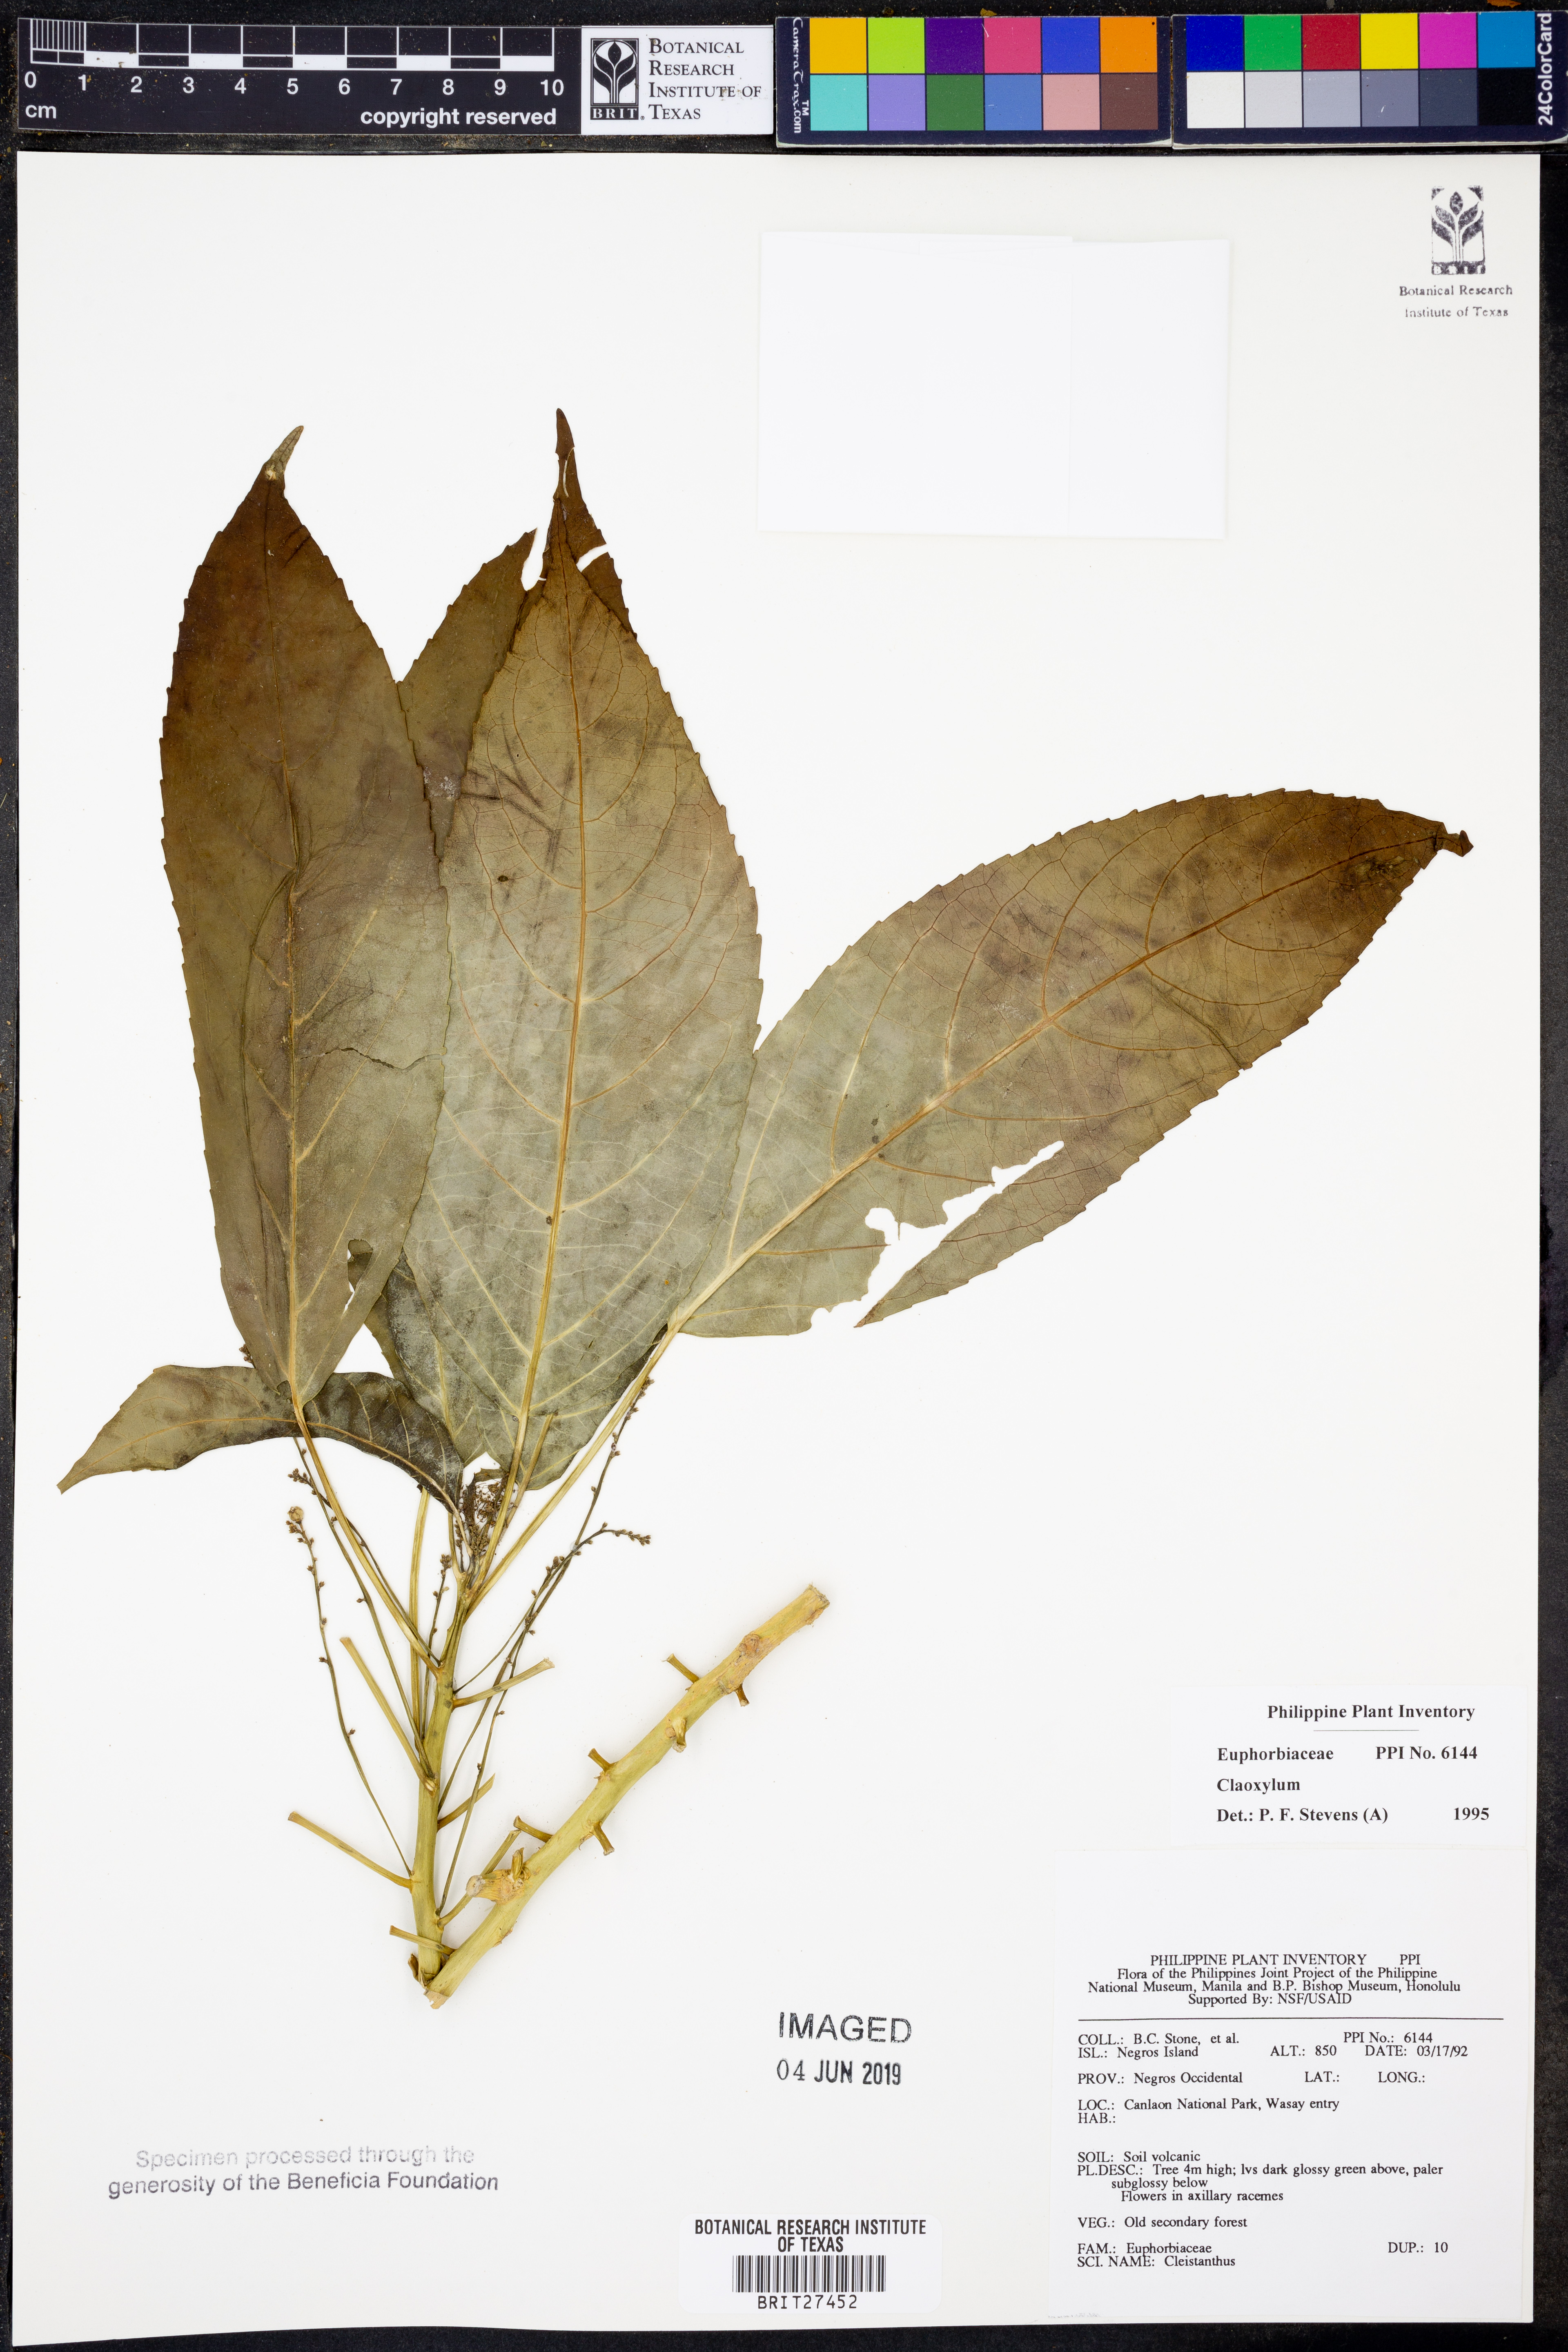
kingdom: Plantae
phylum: Tracheophyta
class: Magnoliopsida
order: Malpighiales
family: Euphorbiaceae
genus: Claoxylon
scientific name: Claoxylon
